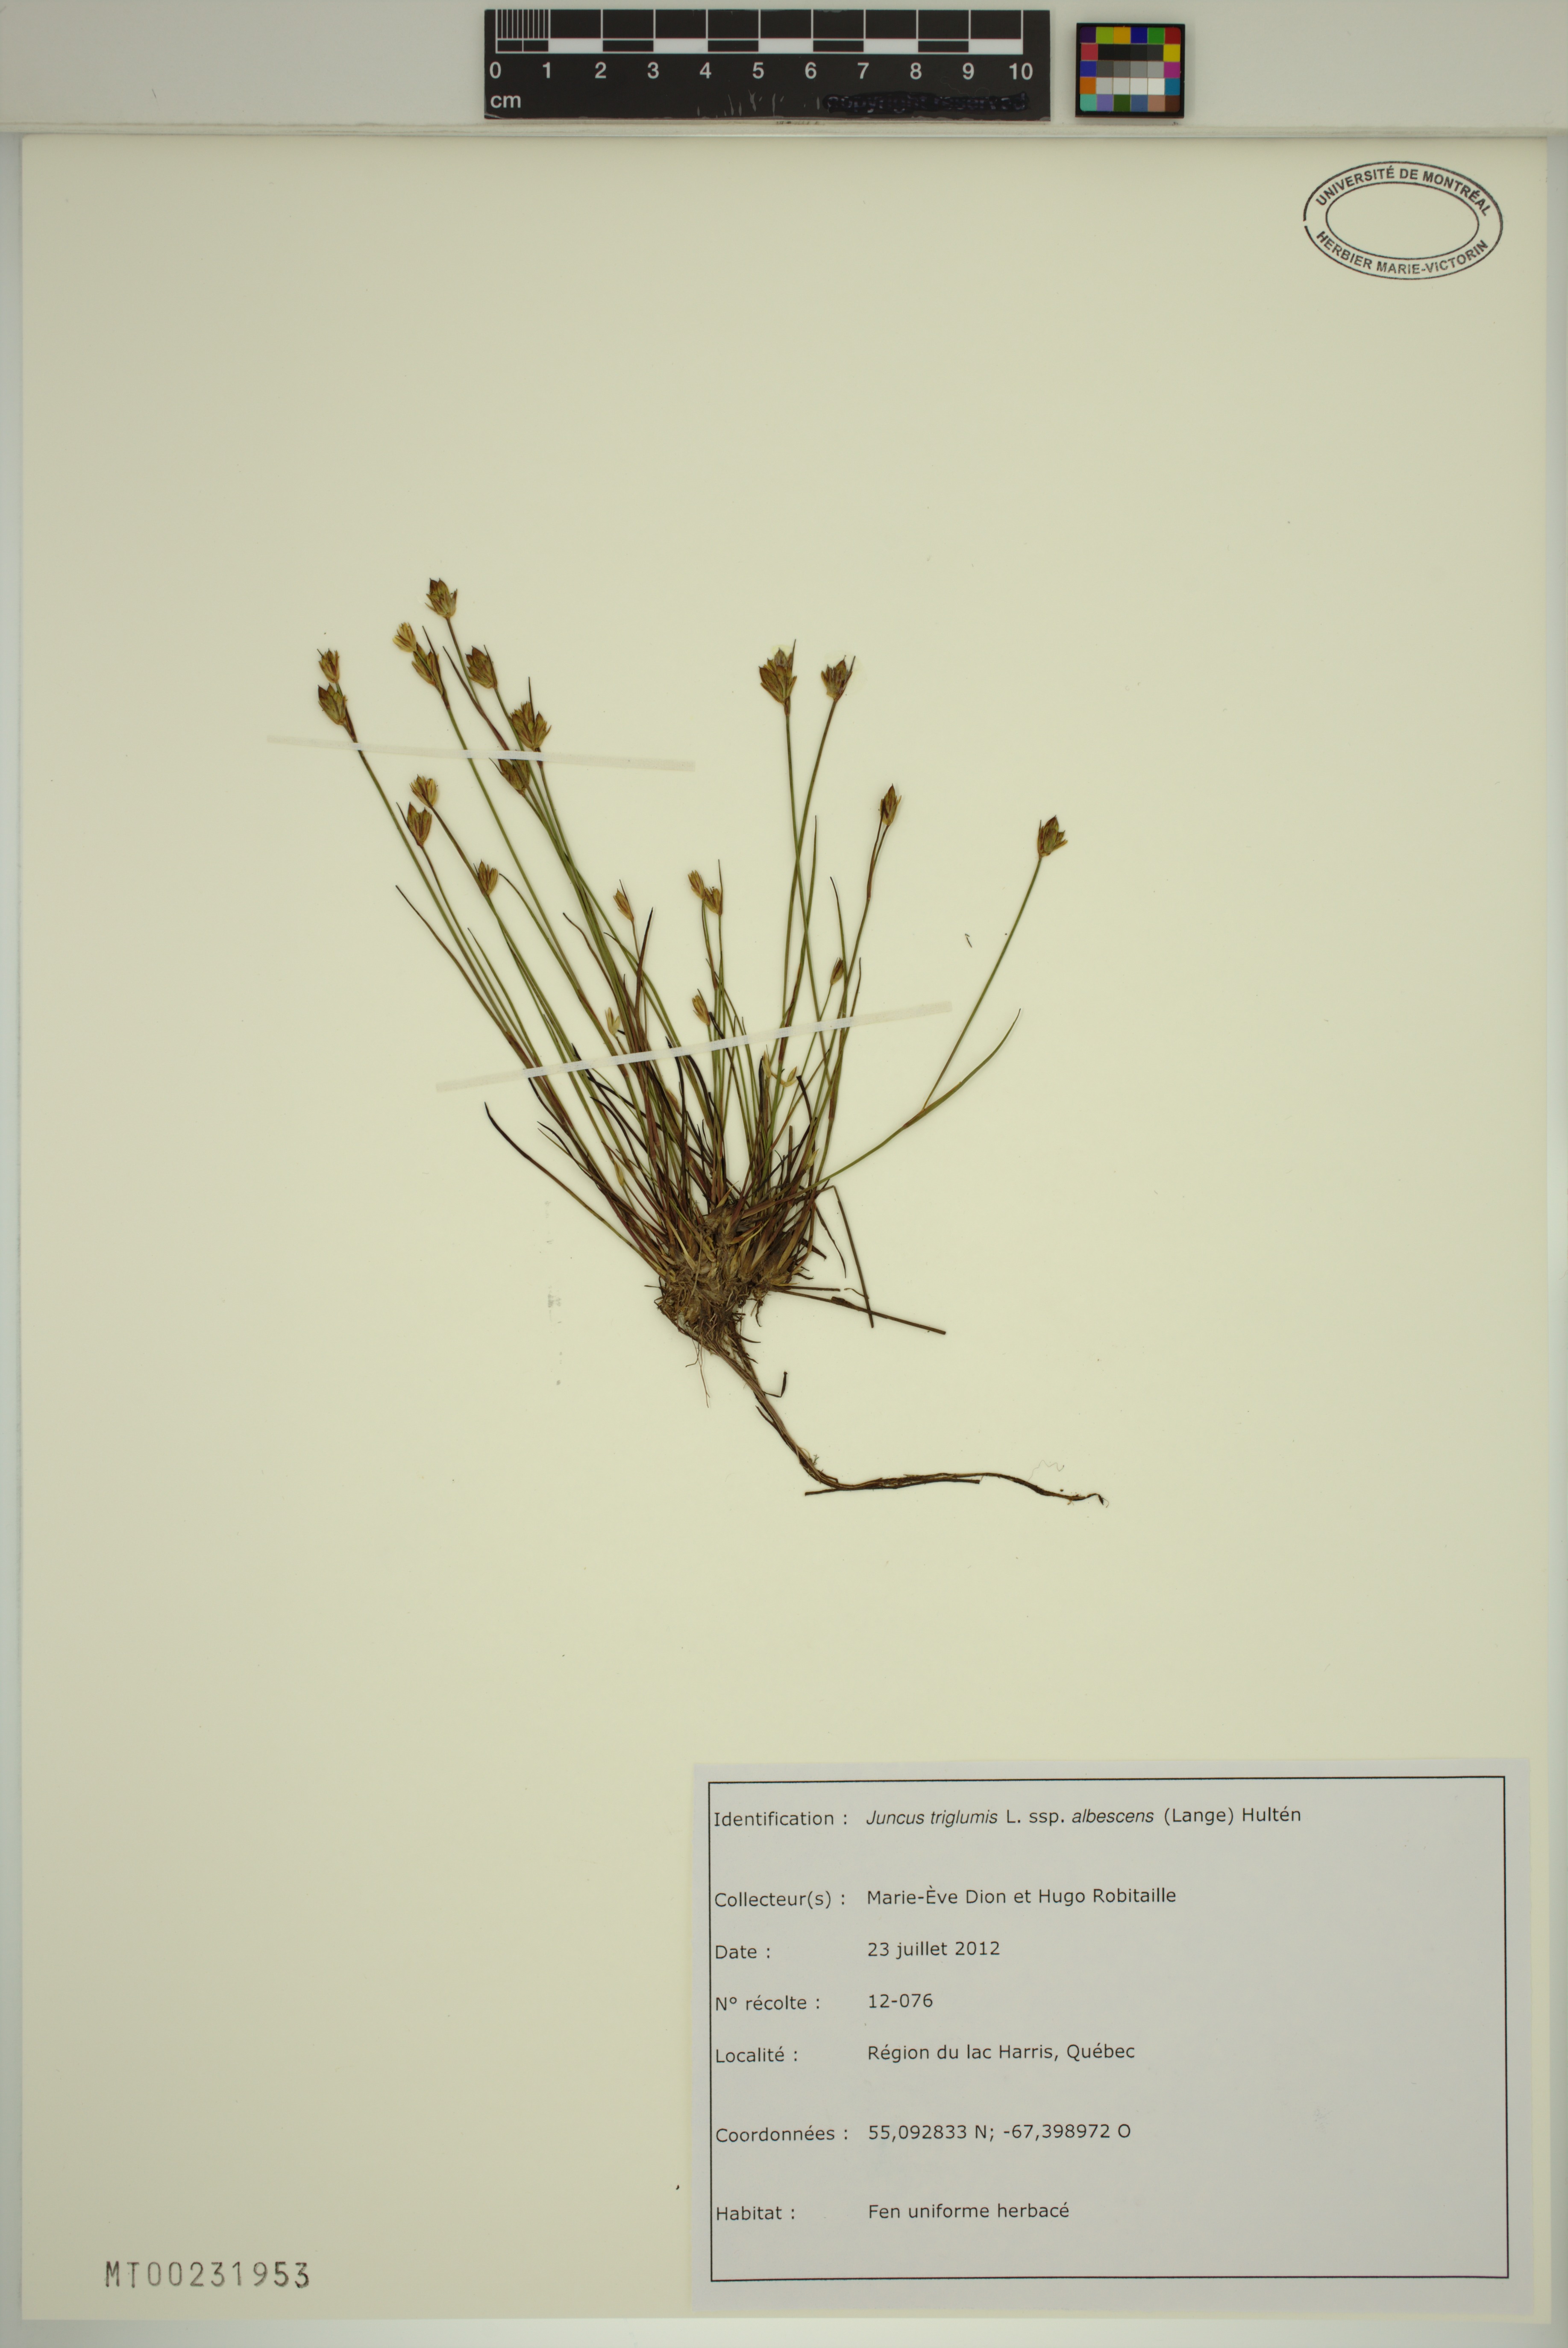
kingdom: Plantae
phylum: Tracheophyta
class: Liliopsida
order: Poales
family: Juncaceae
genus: Juncus
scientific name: Juncus albescens
